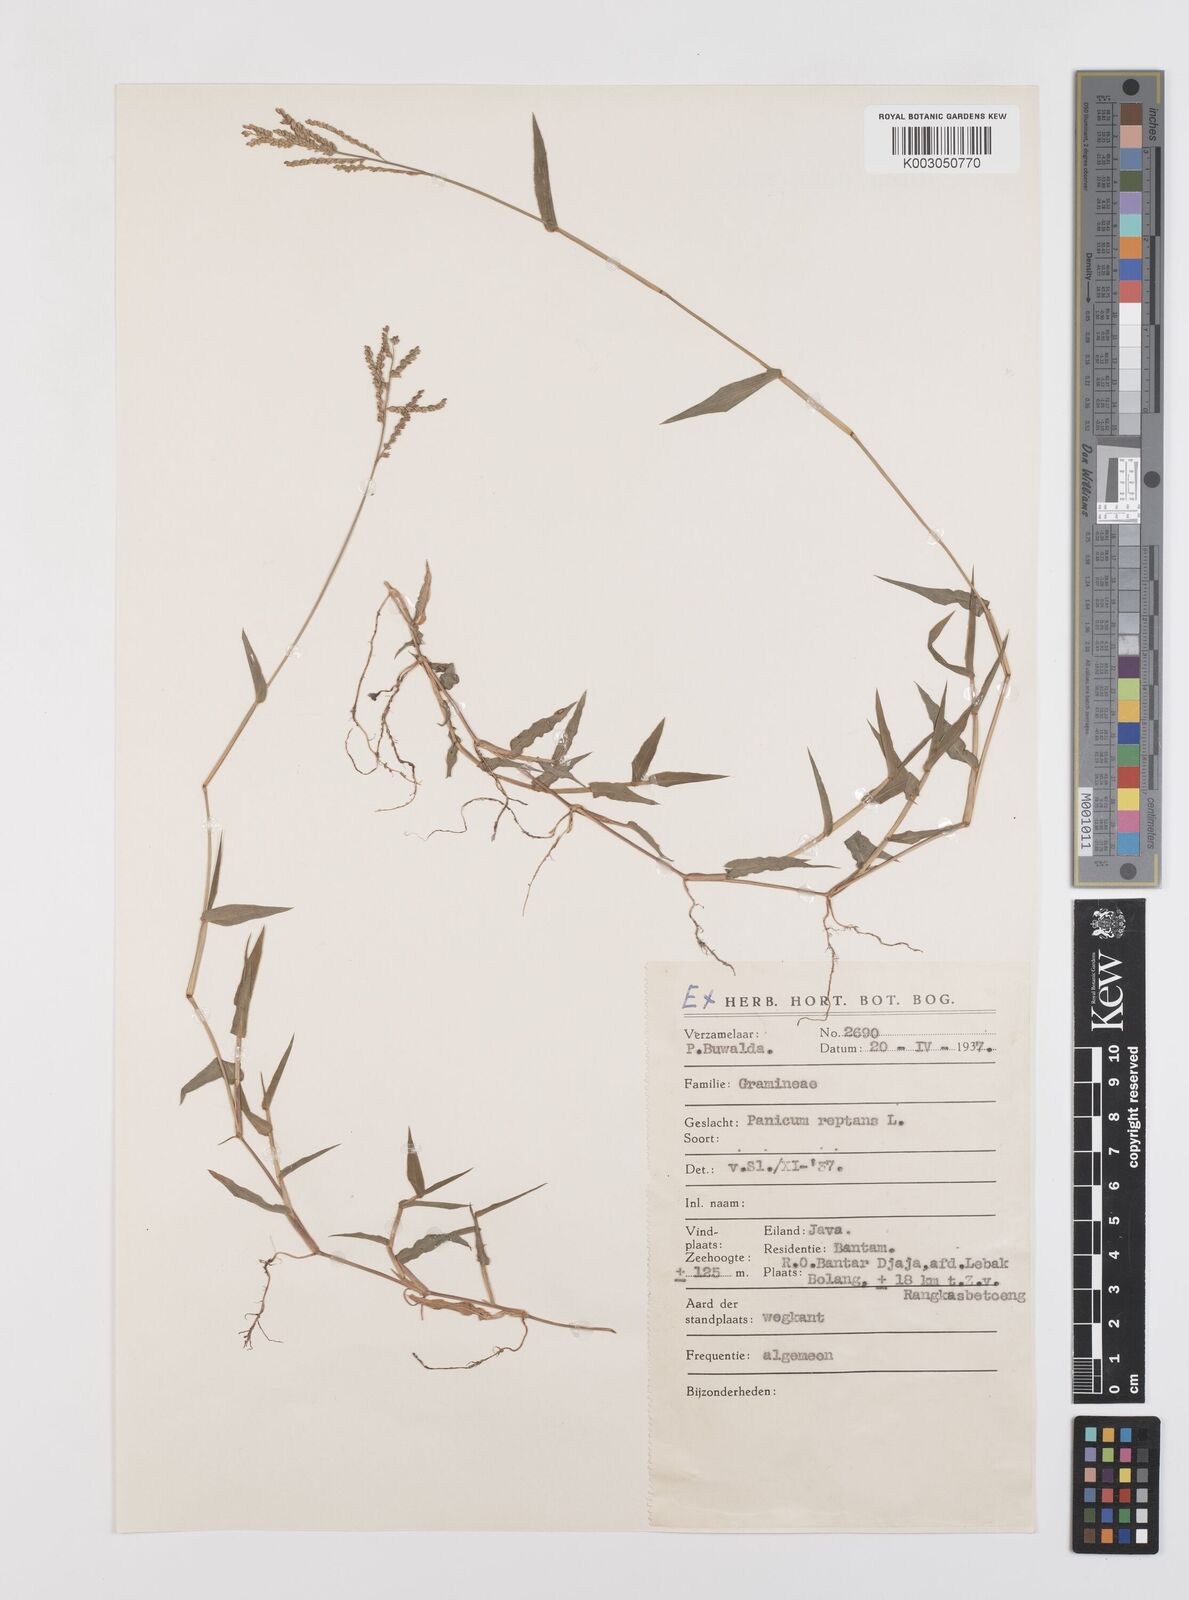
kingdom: Plantae
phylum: Tracheophyta
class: Liliopsida
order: Poales
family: Poaceae
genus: Urochloa
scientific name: Urochloa reptans
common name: Sprawling signalgrass
